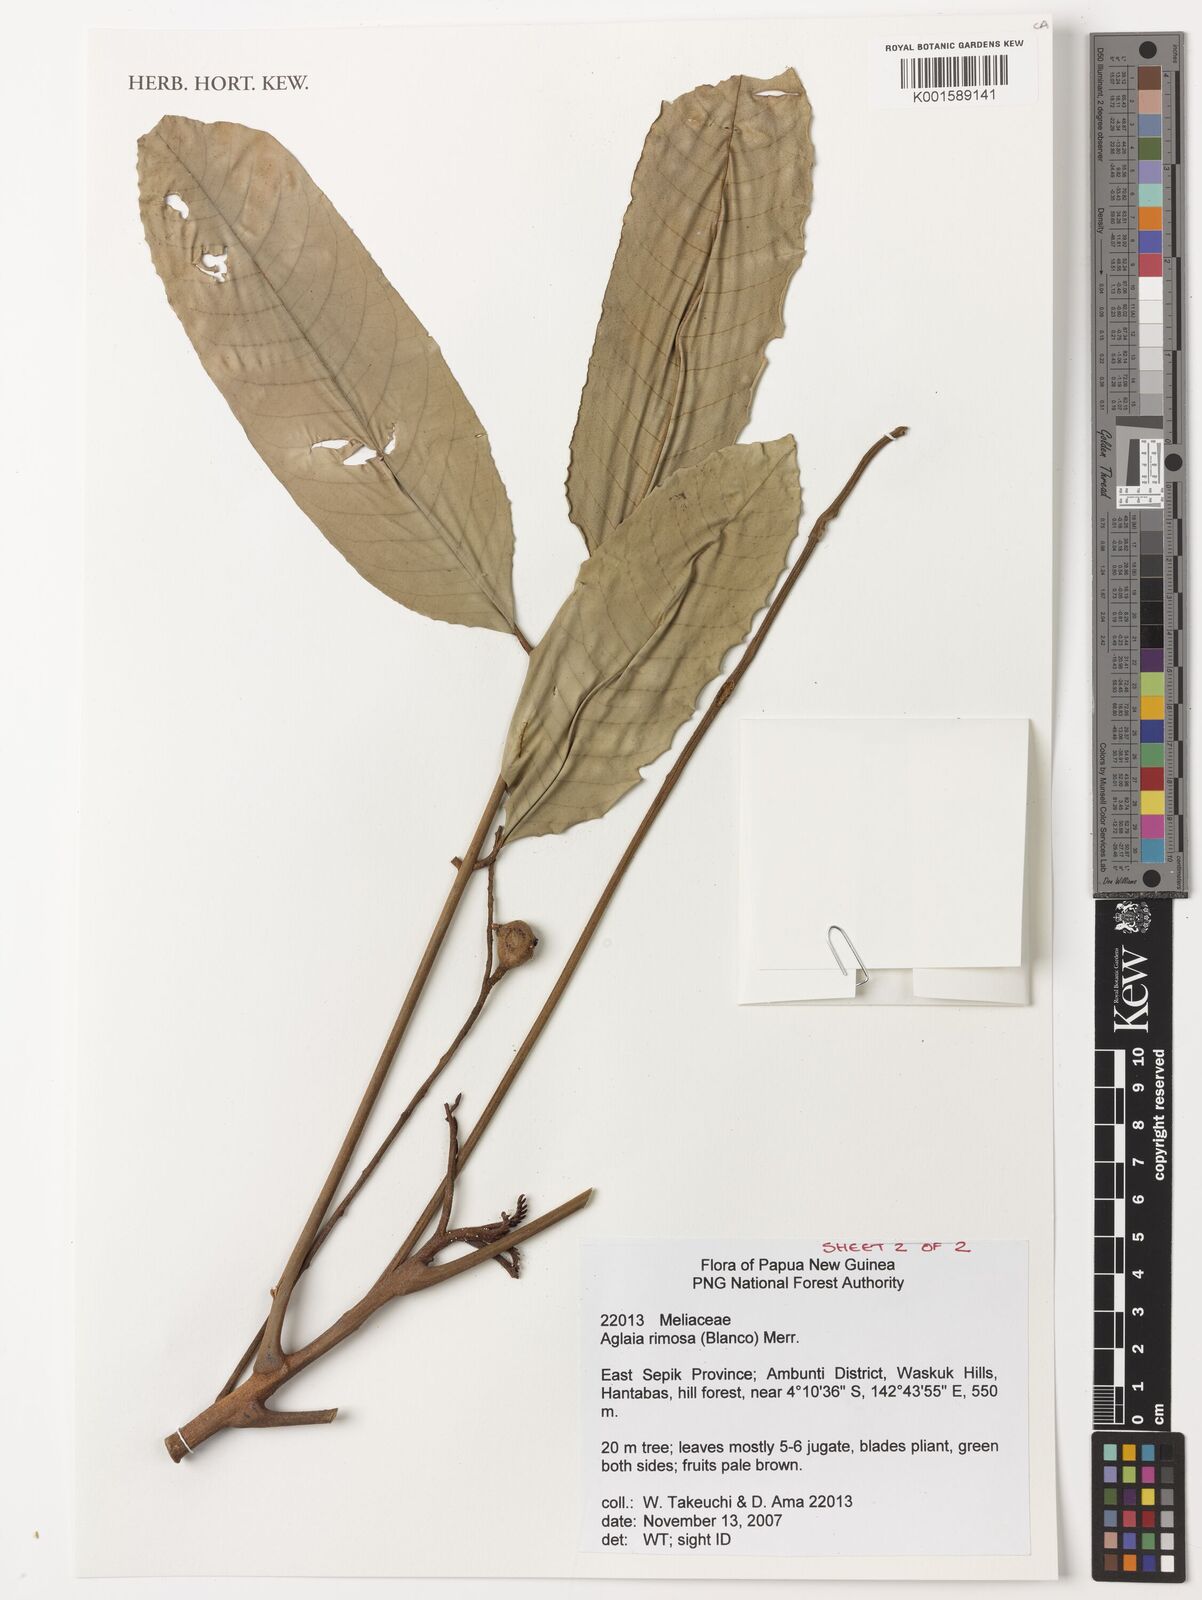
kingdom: Plantae
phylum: Tracheophyta
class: Magnoliopsida
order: Sapindales
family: Meliaceae
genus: Aglaia
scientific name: Aglaia rimosa
